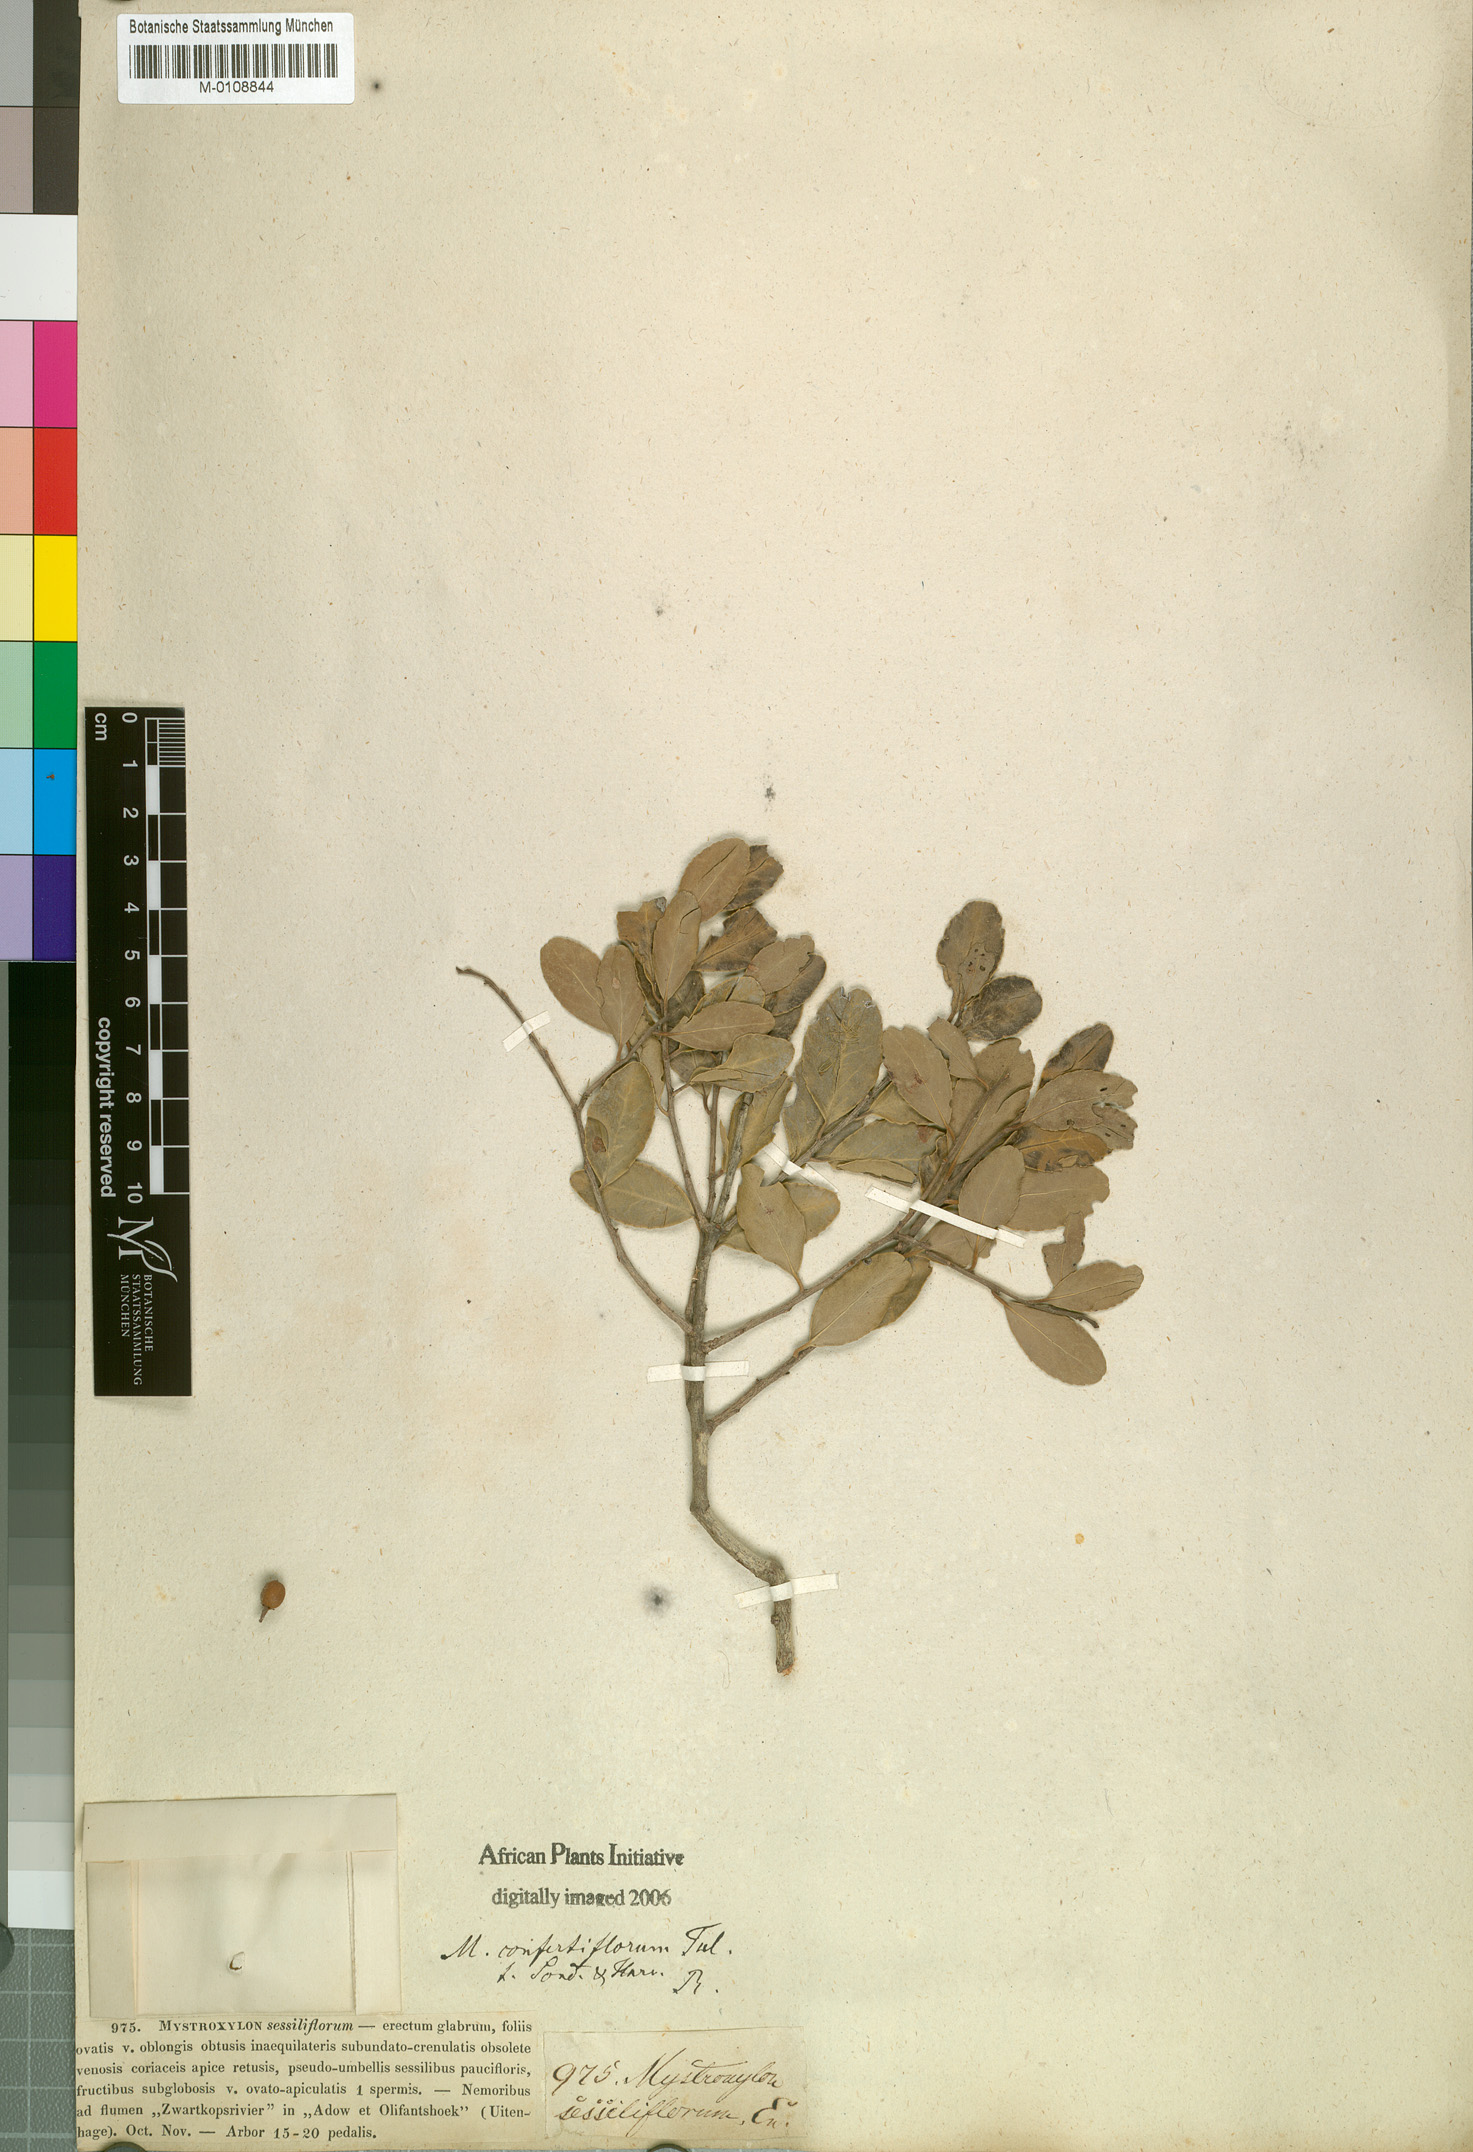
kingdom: Plantae
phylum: Tracheophyta
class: Magnoliopsida
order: Celastrales
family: Celastraceae
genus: Mystroxylon
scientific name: Mystroxylon aethiopicum
